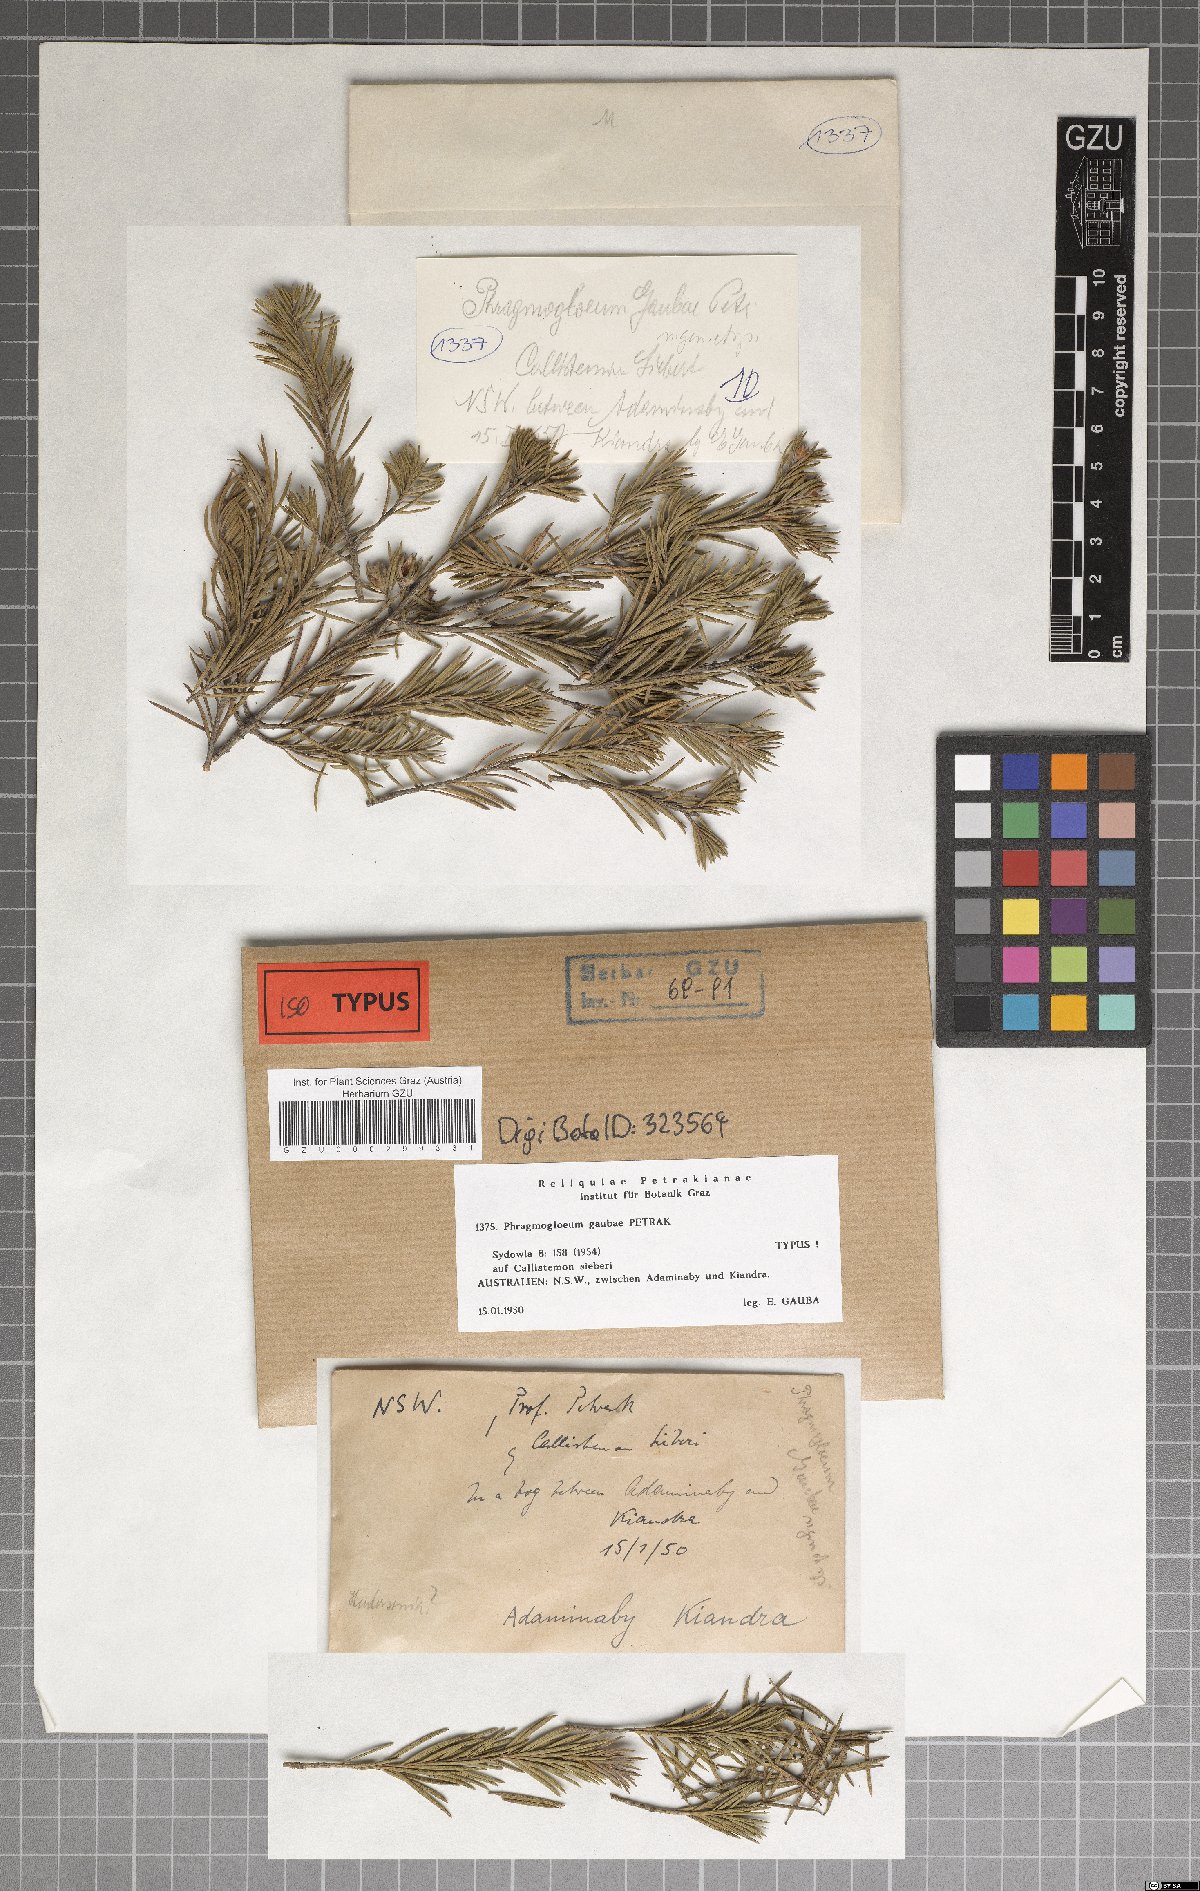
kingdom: Fungi
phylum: Ascomycota
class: Dothideomycetes
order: Mycosphaerellales
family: Mycosphaerellaceae
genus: Lecanosticta
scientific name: Lecanosticta gaubae
